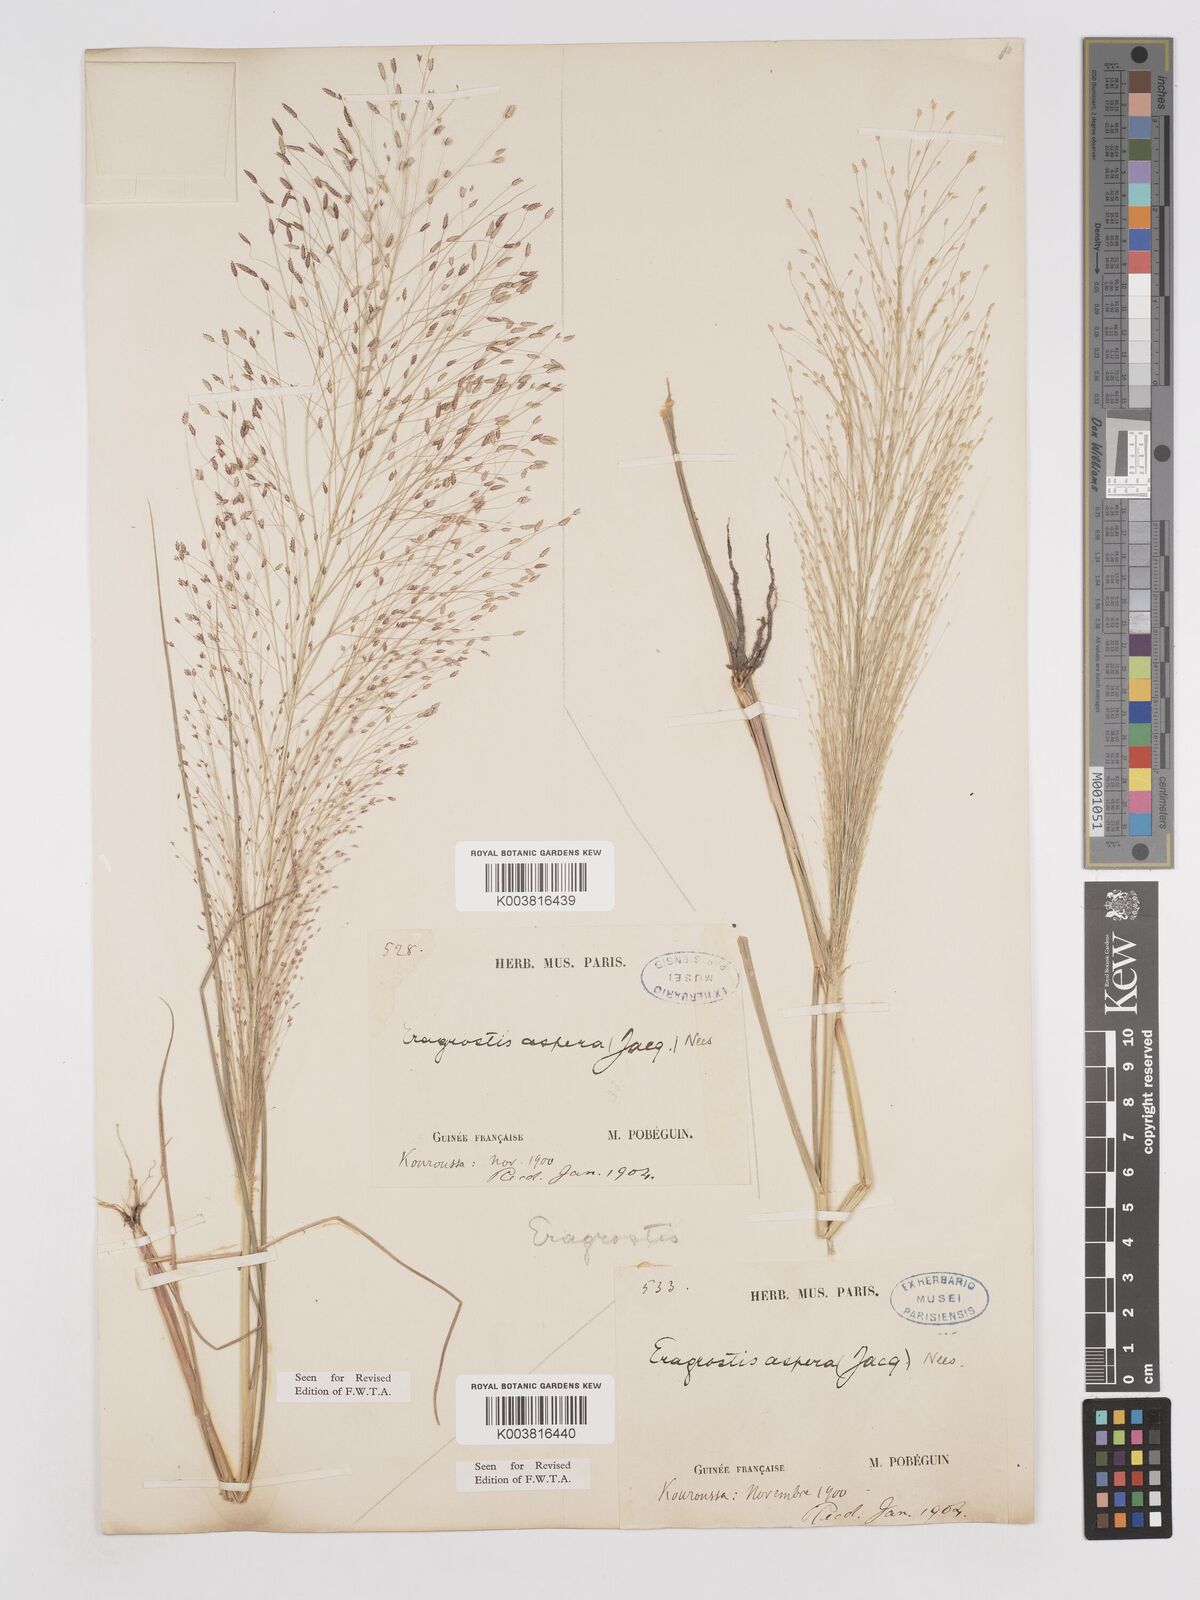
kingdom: Plantae
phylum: Tracheophyta
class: Liliopsida
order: Poales
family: Poaceae
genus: Eragrostis
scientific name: Eragrostis aspera
